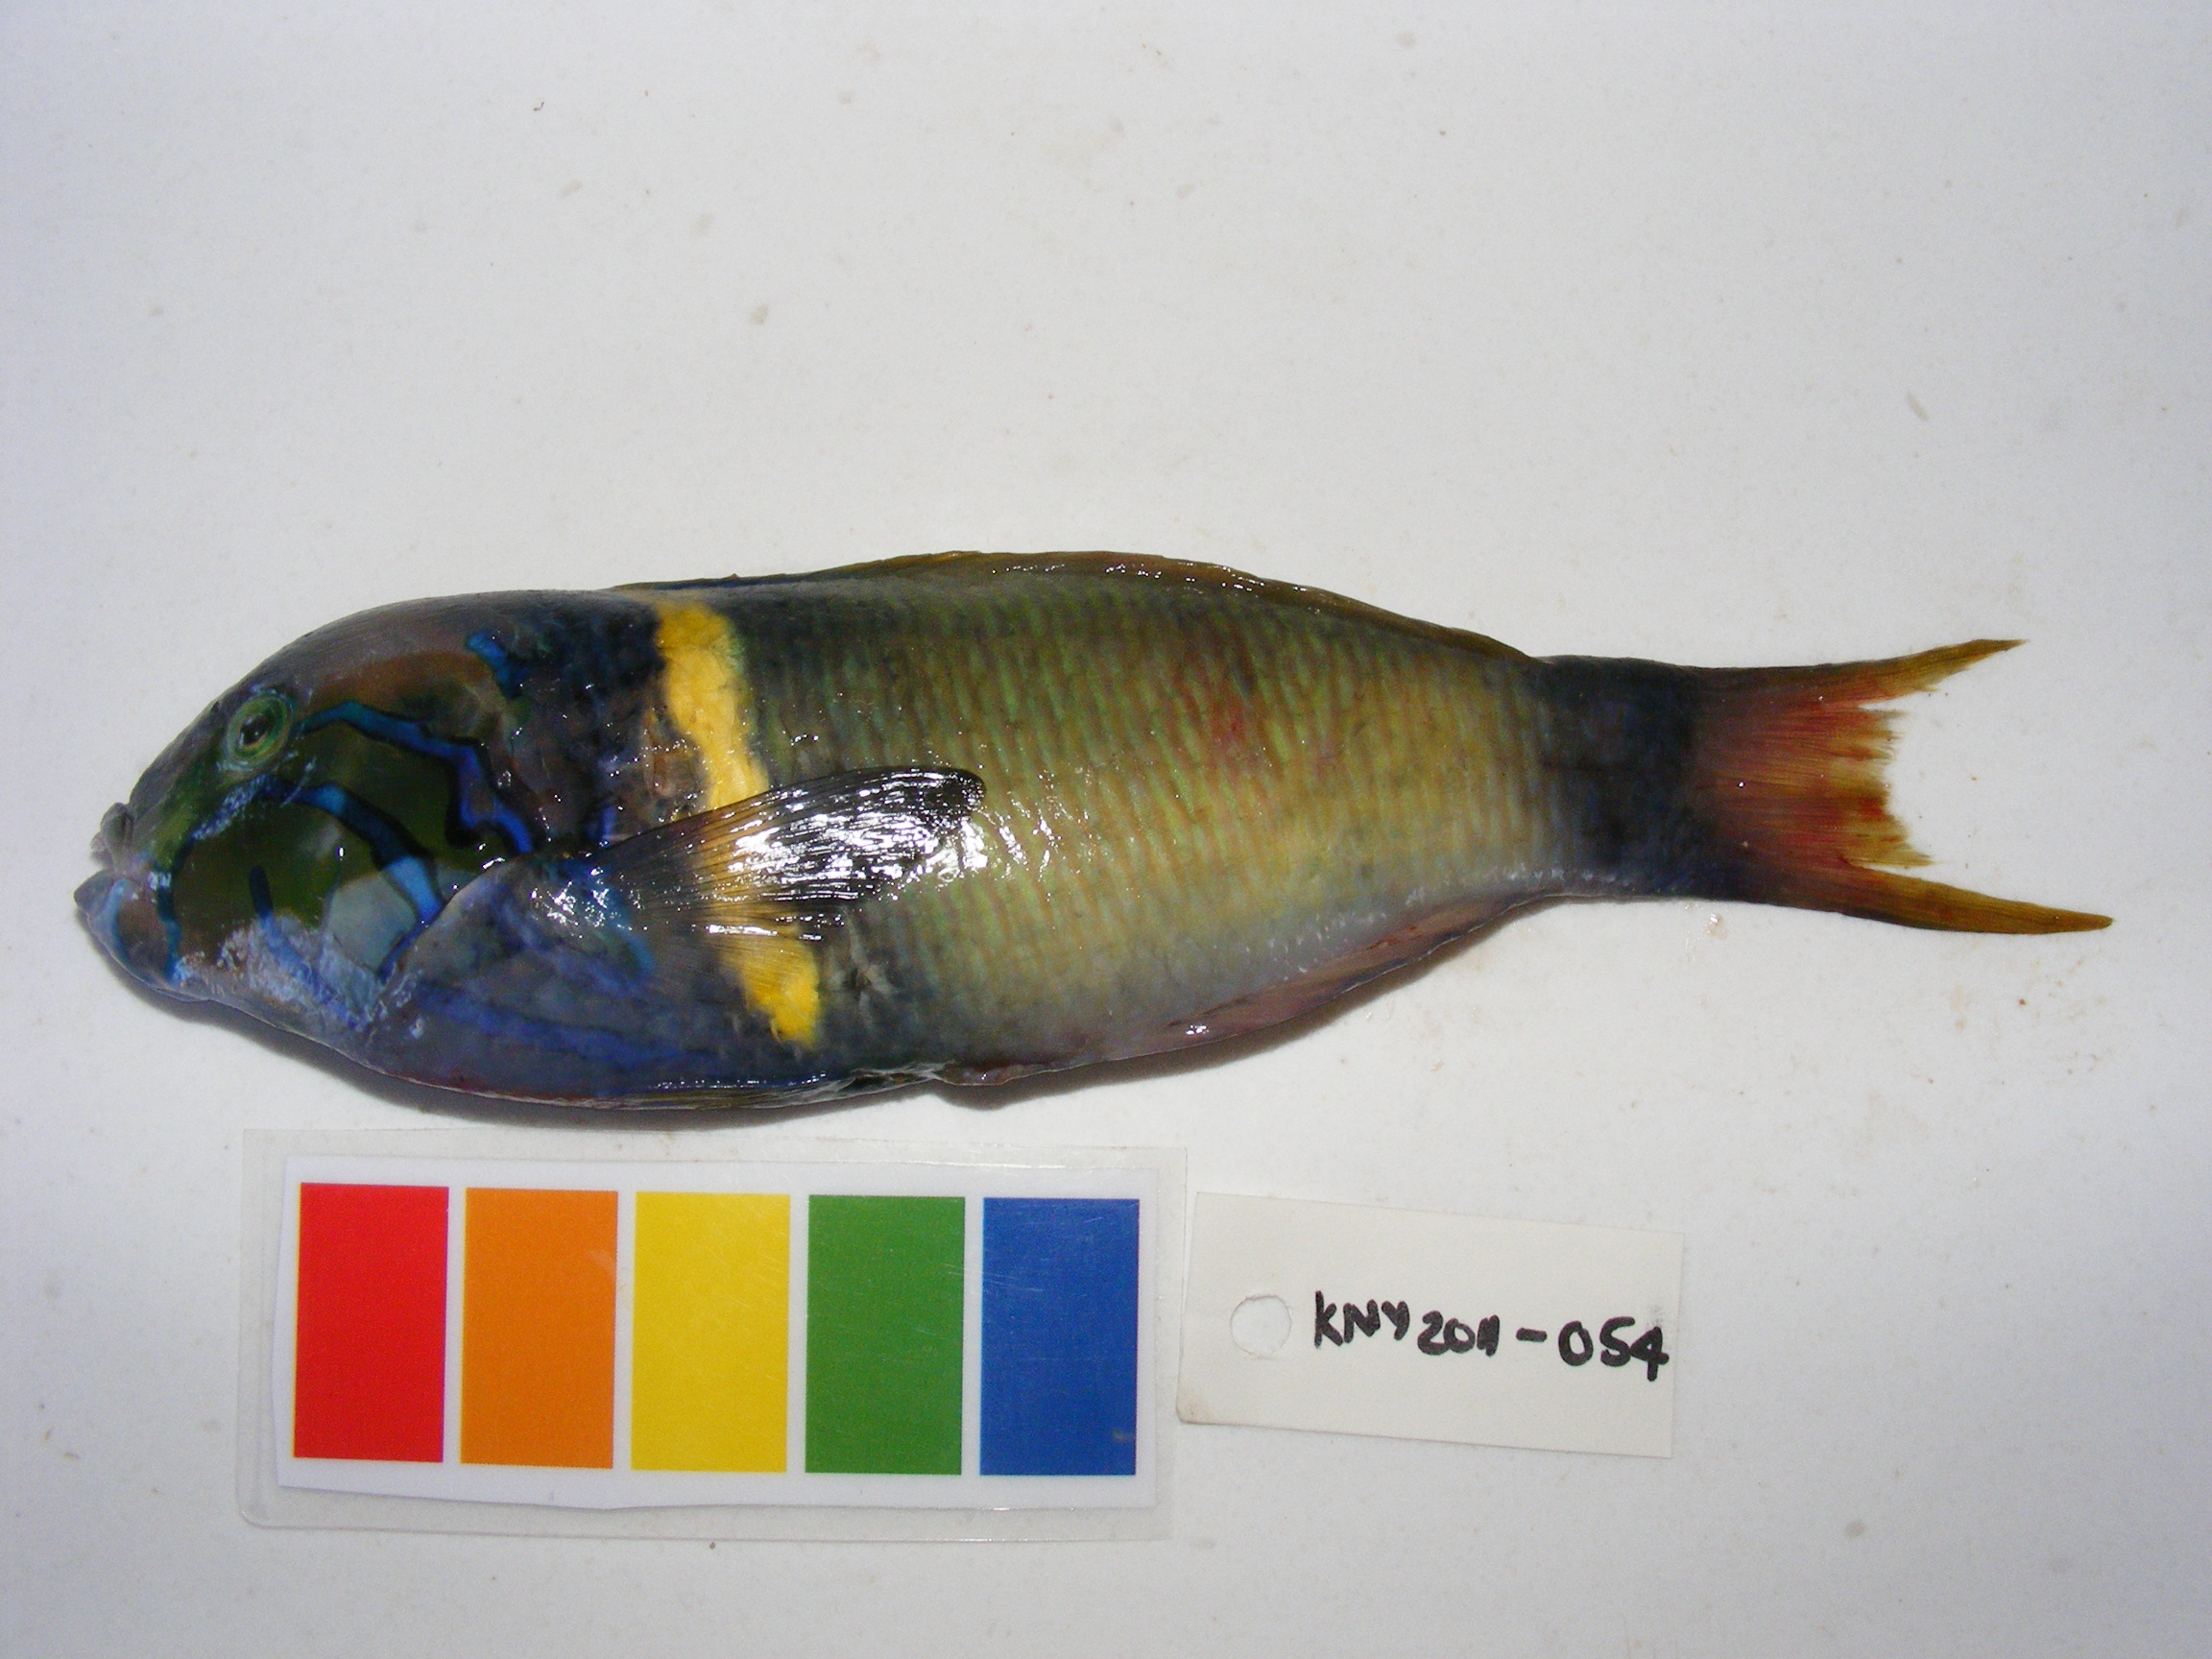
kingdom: Animalia
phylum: Chordata
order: Perciformes
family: Labridae
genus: Thalassoma
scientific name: Thalassoma hebraicum
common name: Goldbar wrasse
